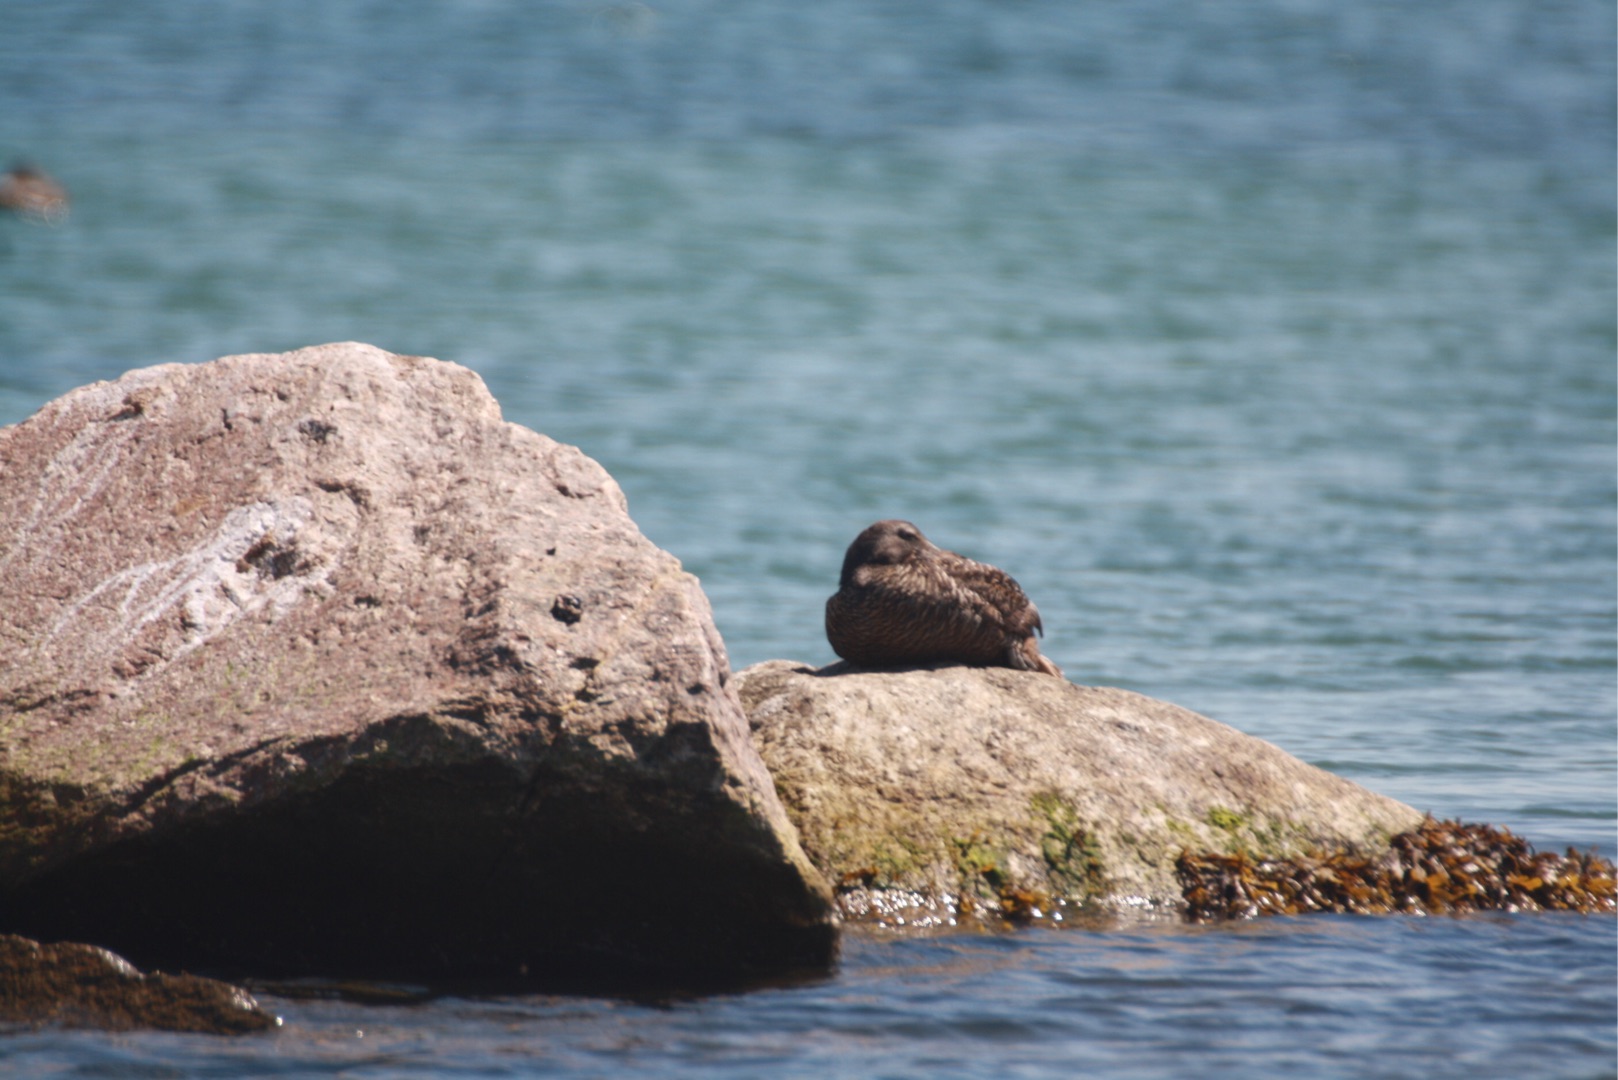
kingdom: Animalia
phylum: Chordata
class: Aves
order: Anseriformes
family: Anatidae
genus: Somateria
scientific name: Somateria mollissima
